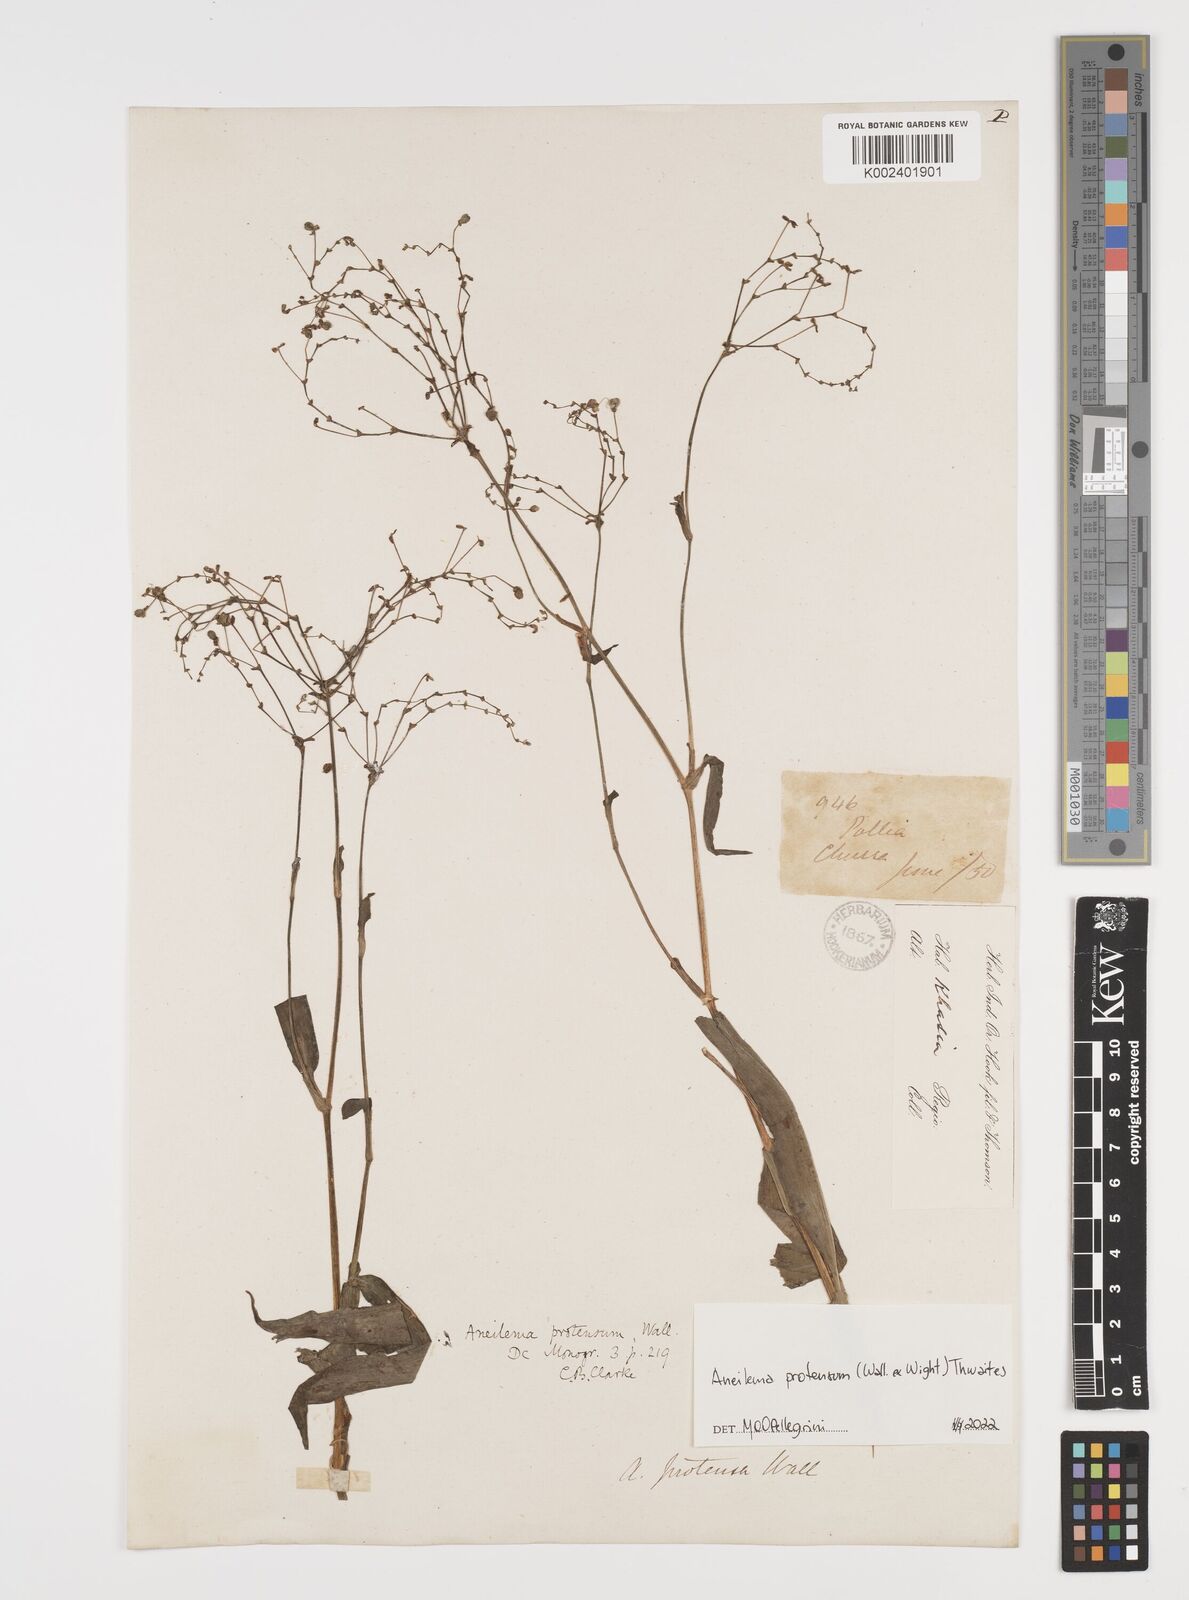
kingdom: Plantae
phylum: Tracheophyta
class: Liliopsida
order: Commelinales
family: Commelinaceae
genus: Rhopalephora
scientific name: Rhopalephora
